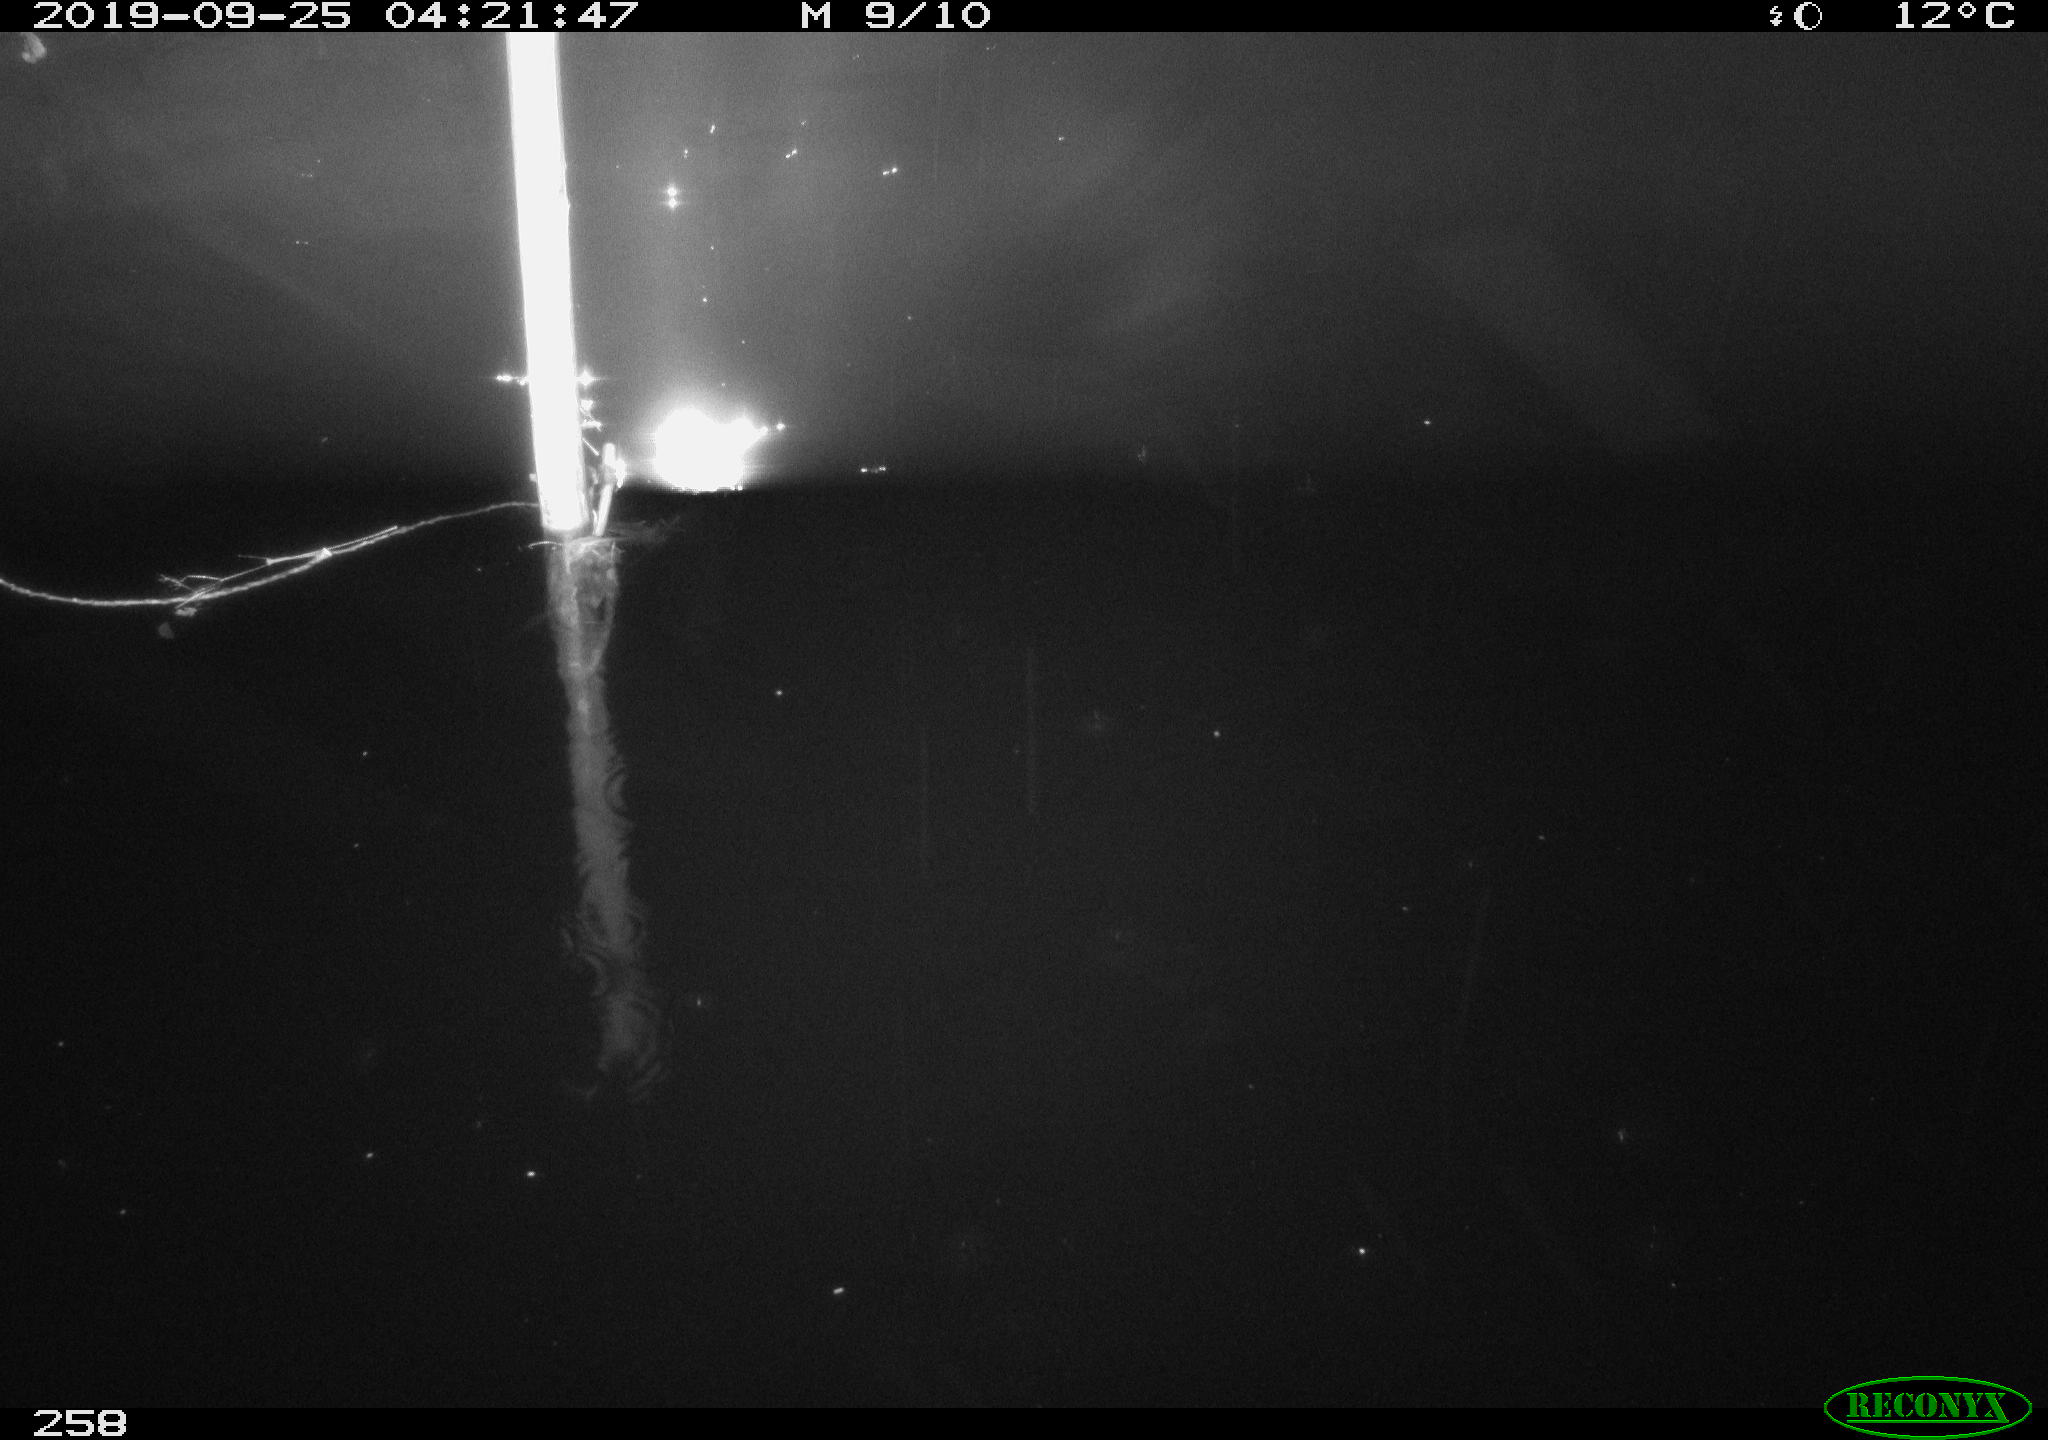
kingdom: Animalia
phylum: Chordata
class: Aves
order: Anseriformes
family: Anatidae
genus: Anas
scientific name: Anas platyrhynchos
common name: Mallard
